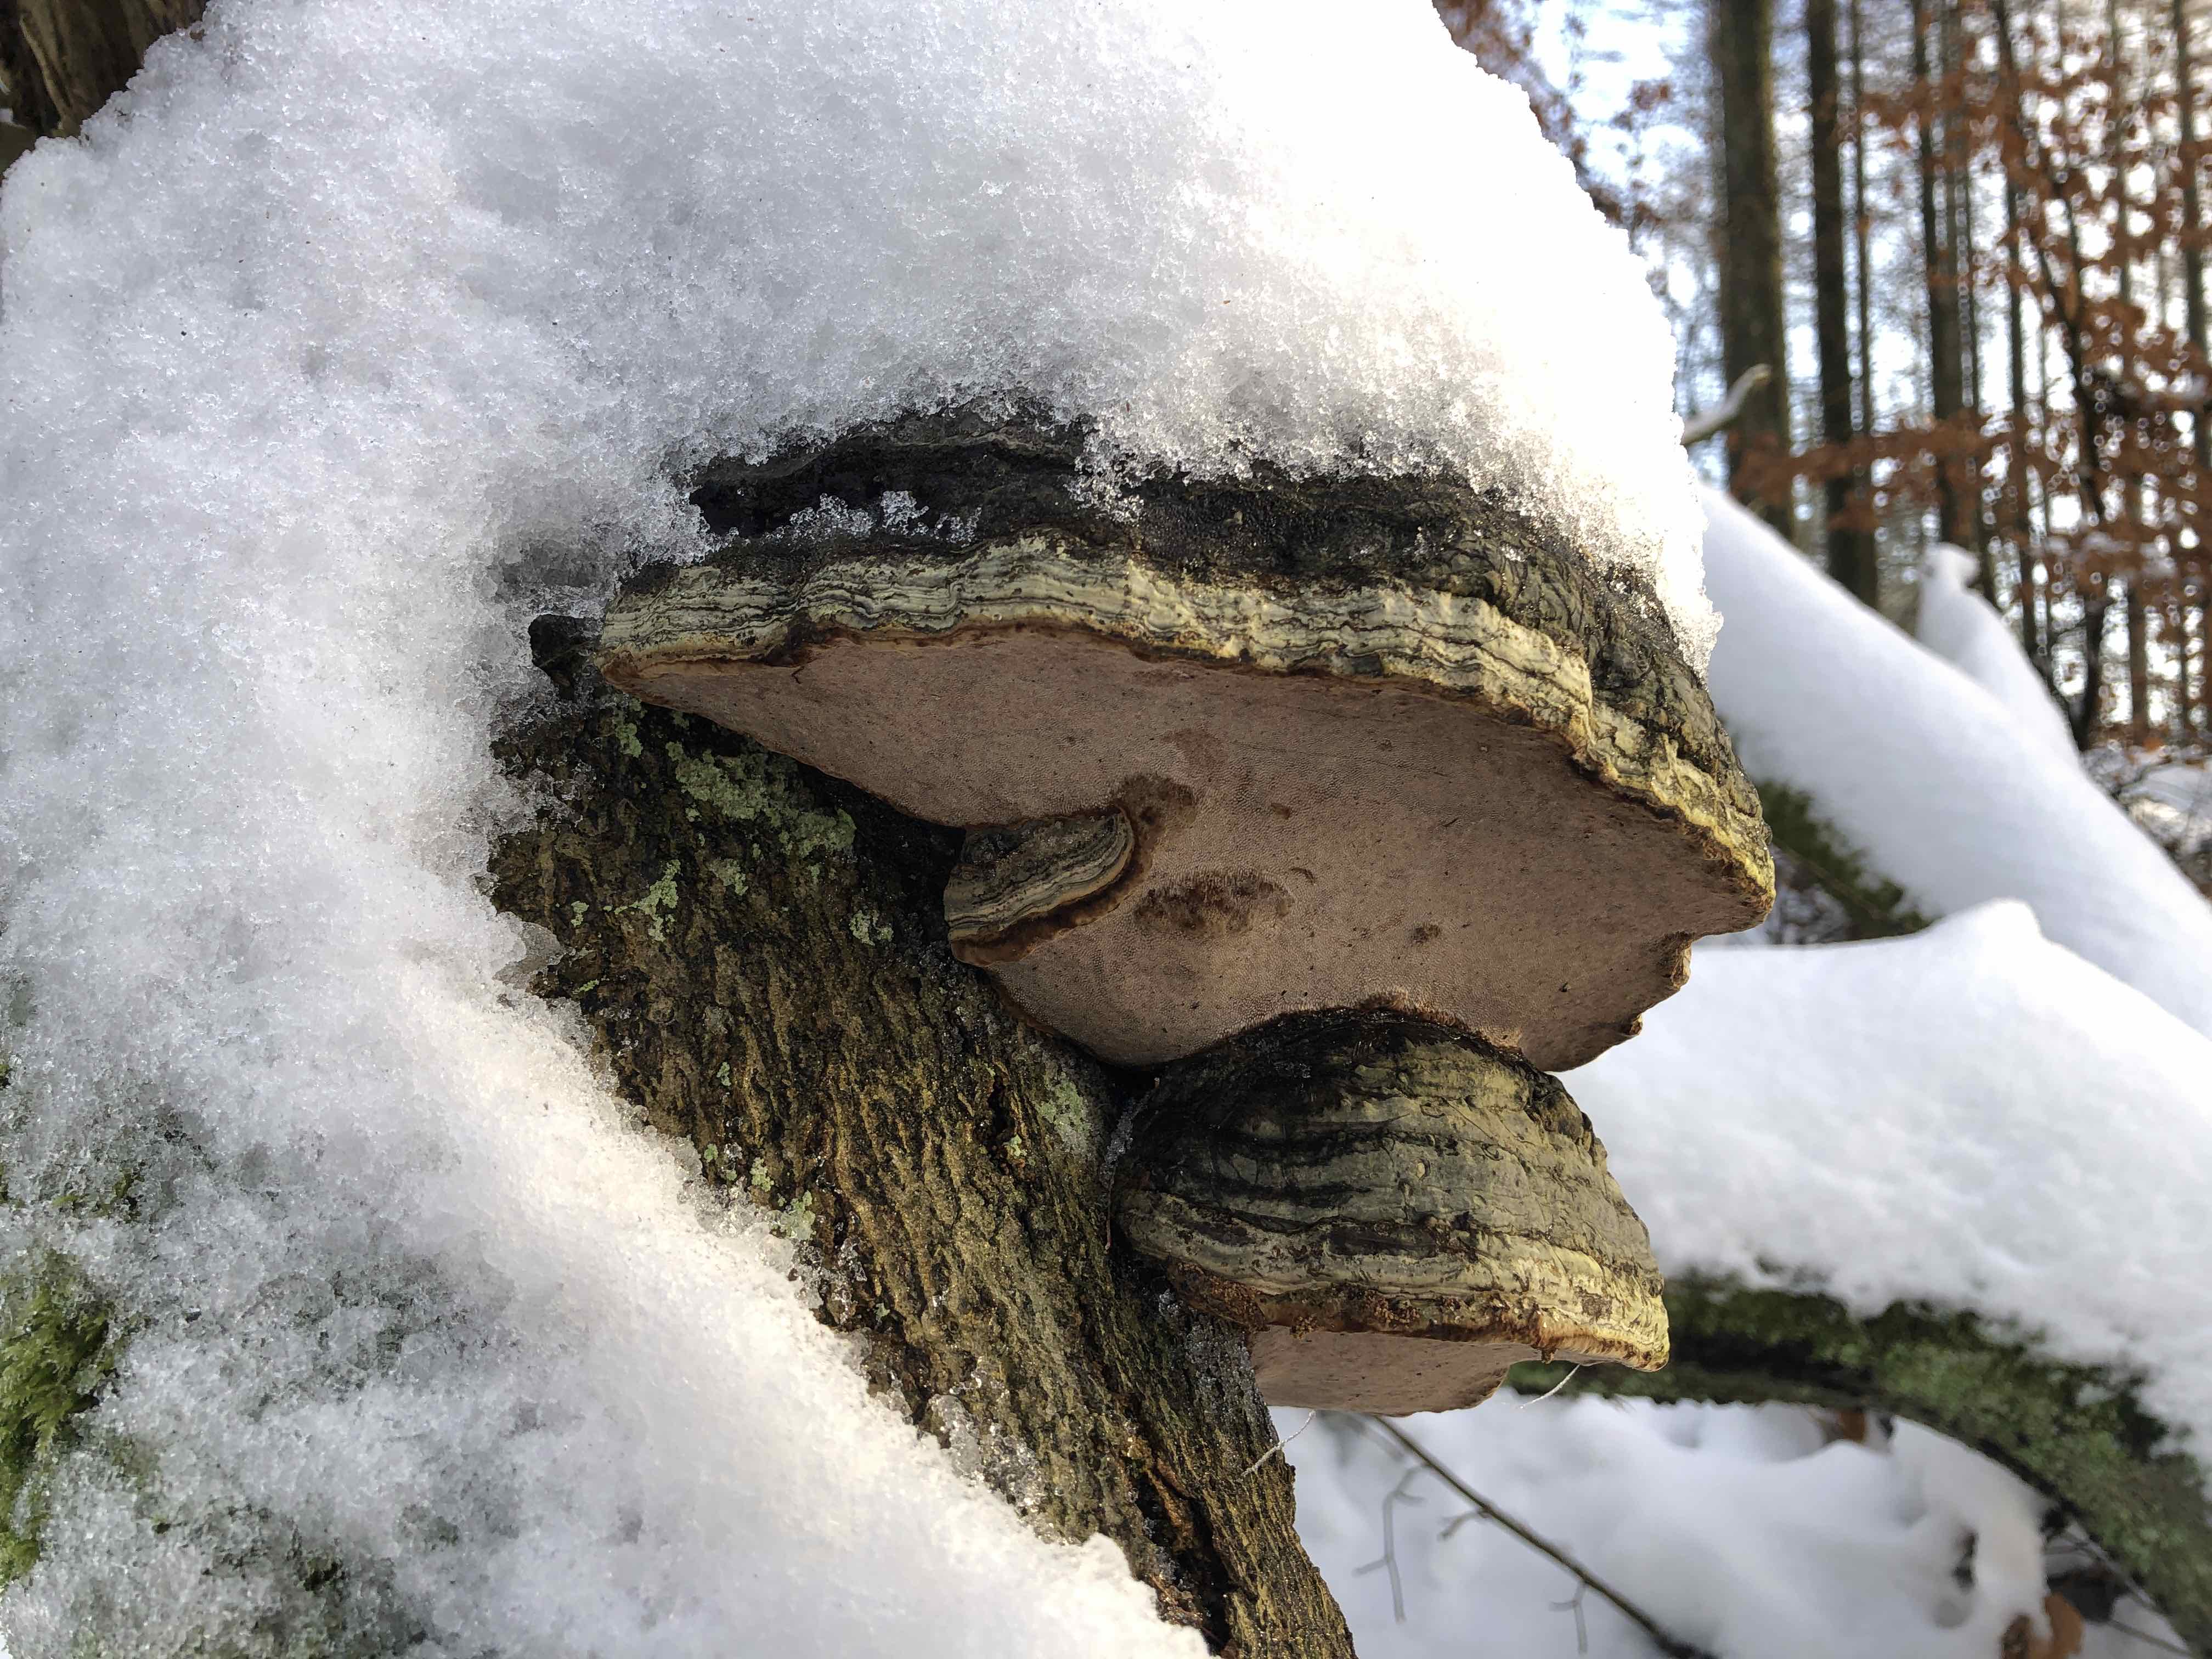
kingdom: Fungi
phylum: Basidiomycota
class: Agaricomycetes
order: Polyporales
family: Polyporaceae
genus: Fomes
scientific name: Fomes fomentarius
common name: tøndersvamp
